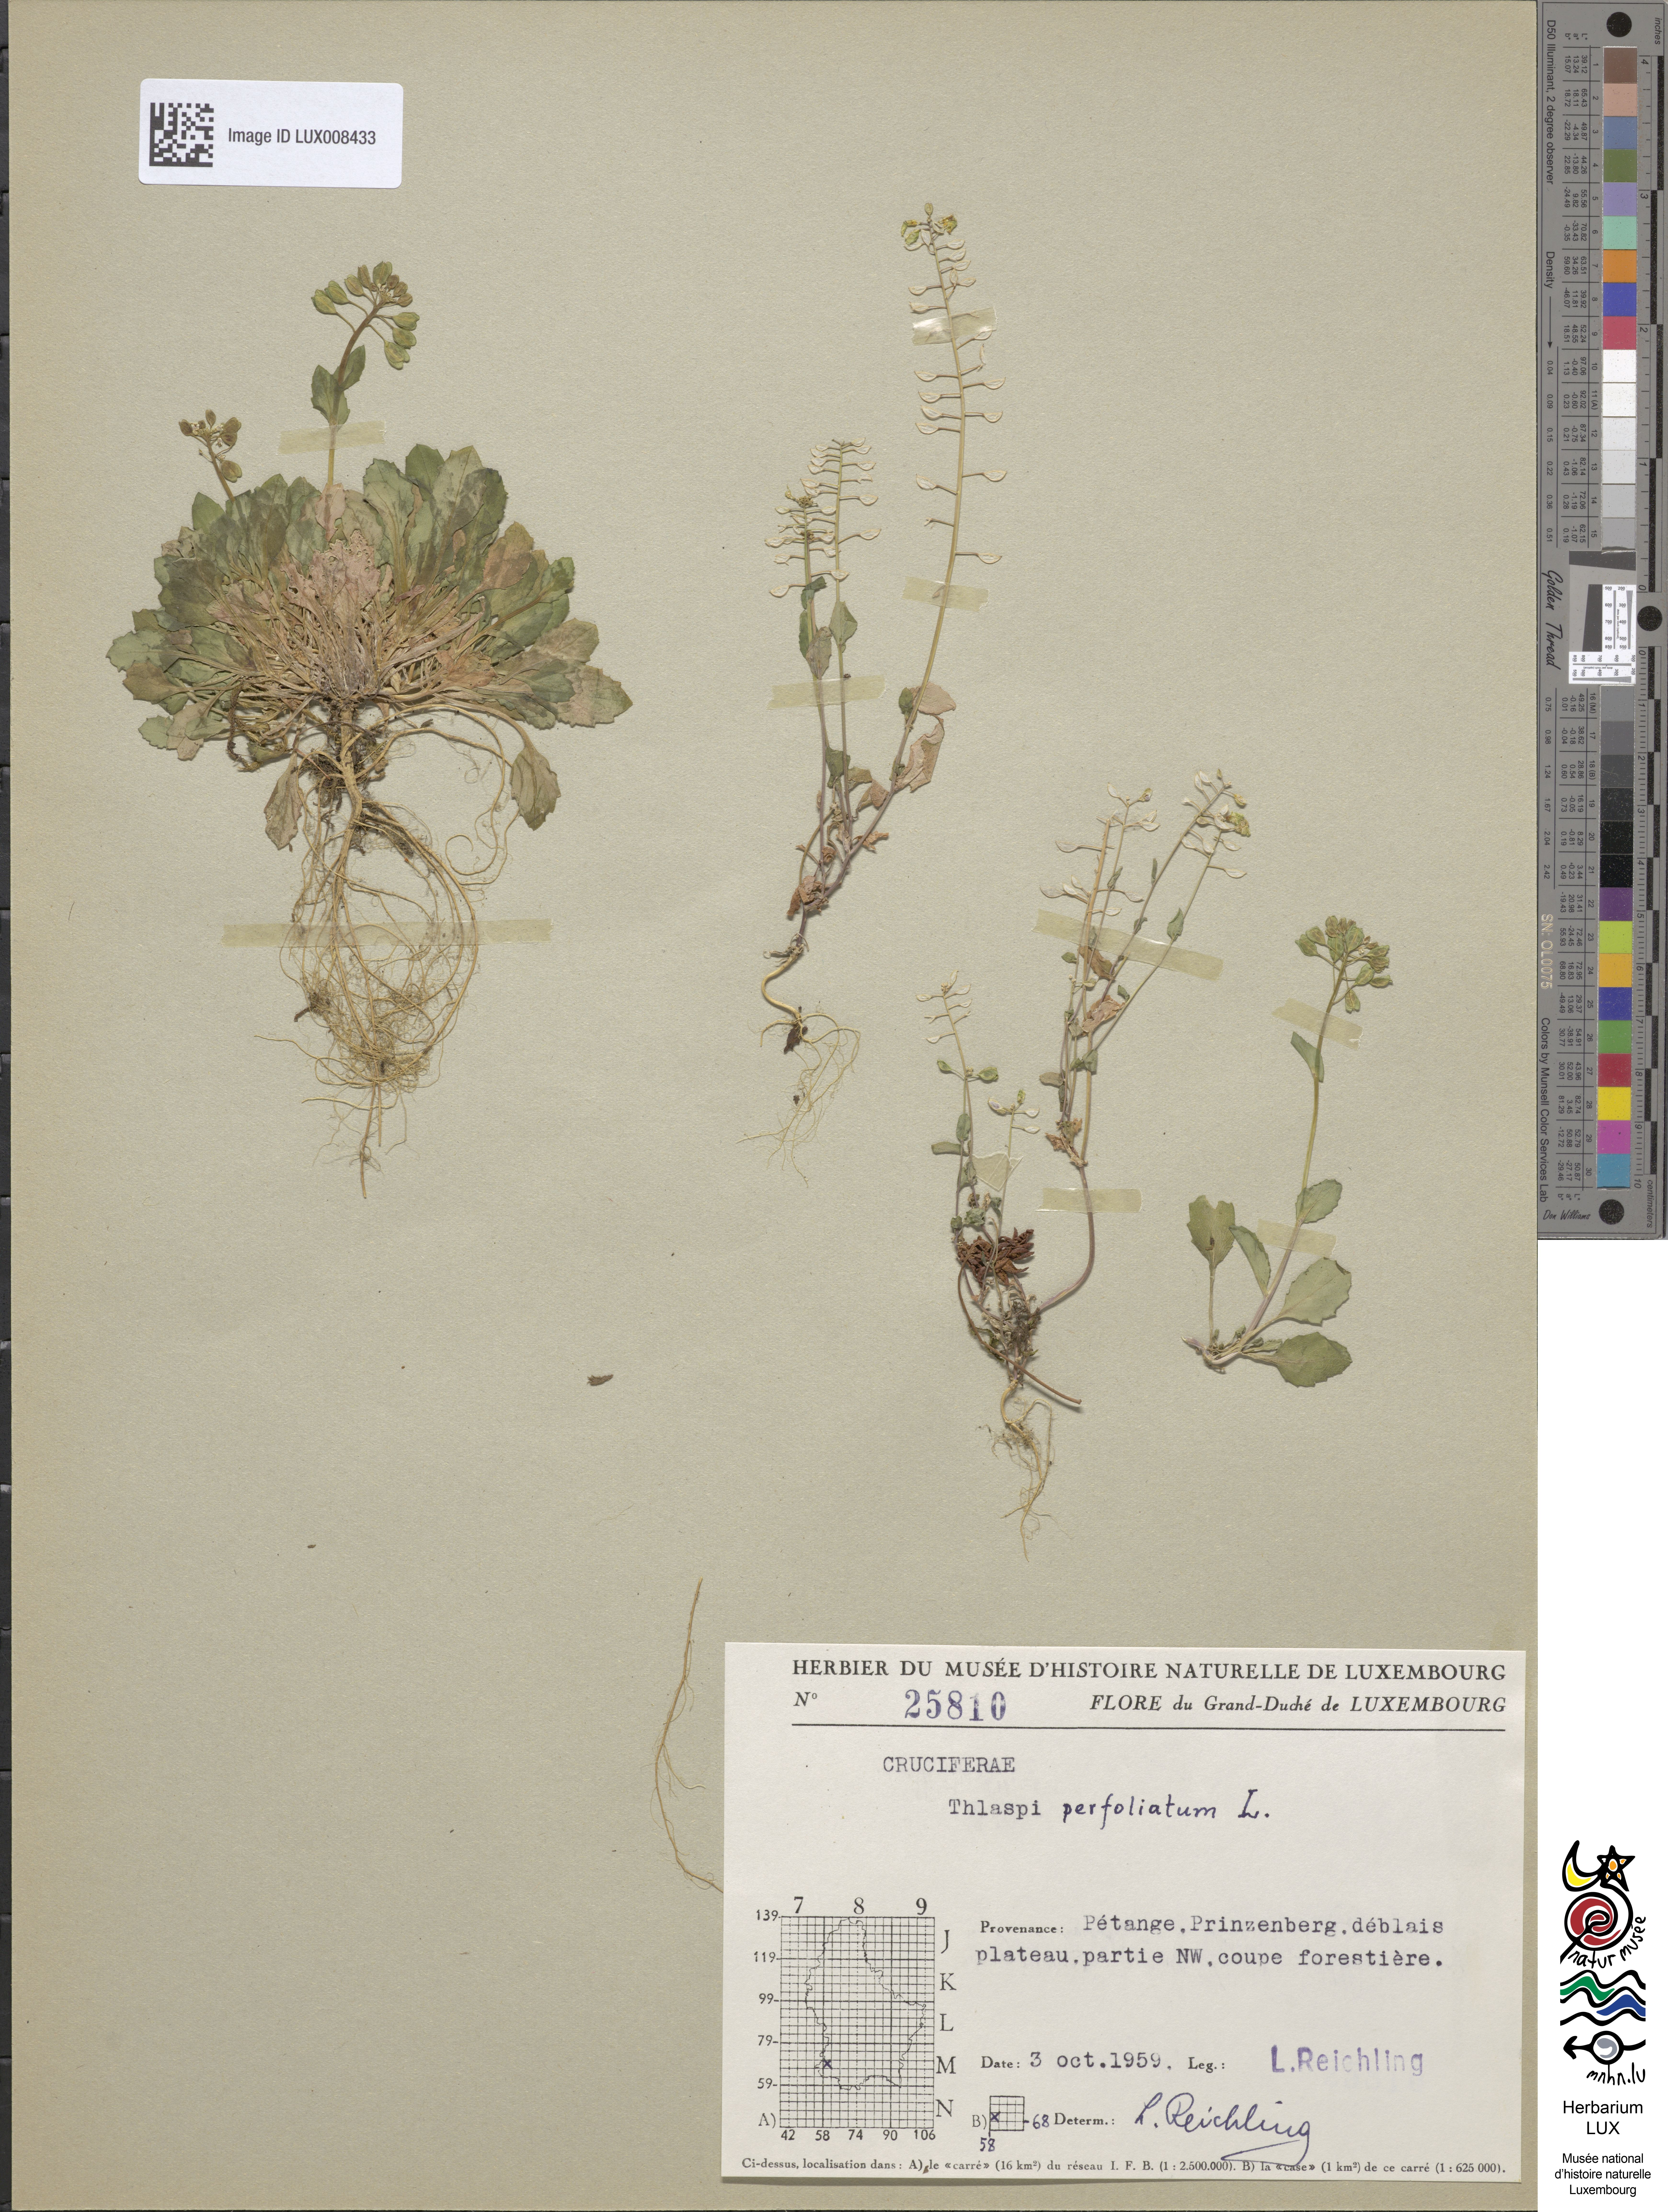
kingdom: Plantae
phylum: Tracheophyta
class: Magnoliopsida
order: Brassicales
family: Brassicaceae
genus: Noccaea
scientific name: Noccaea perfoliata
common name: Perfoliate pennycress
